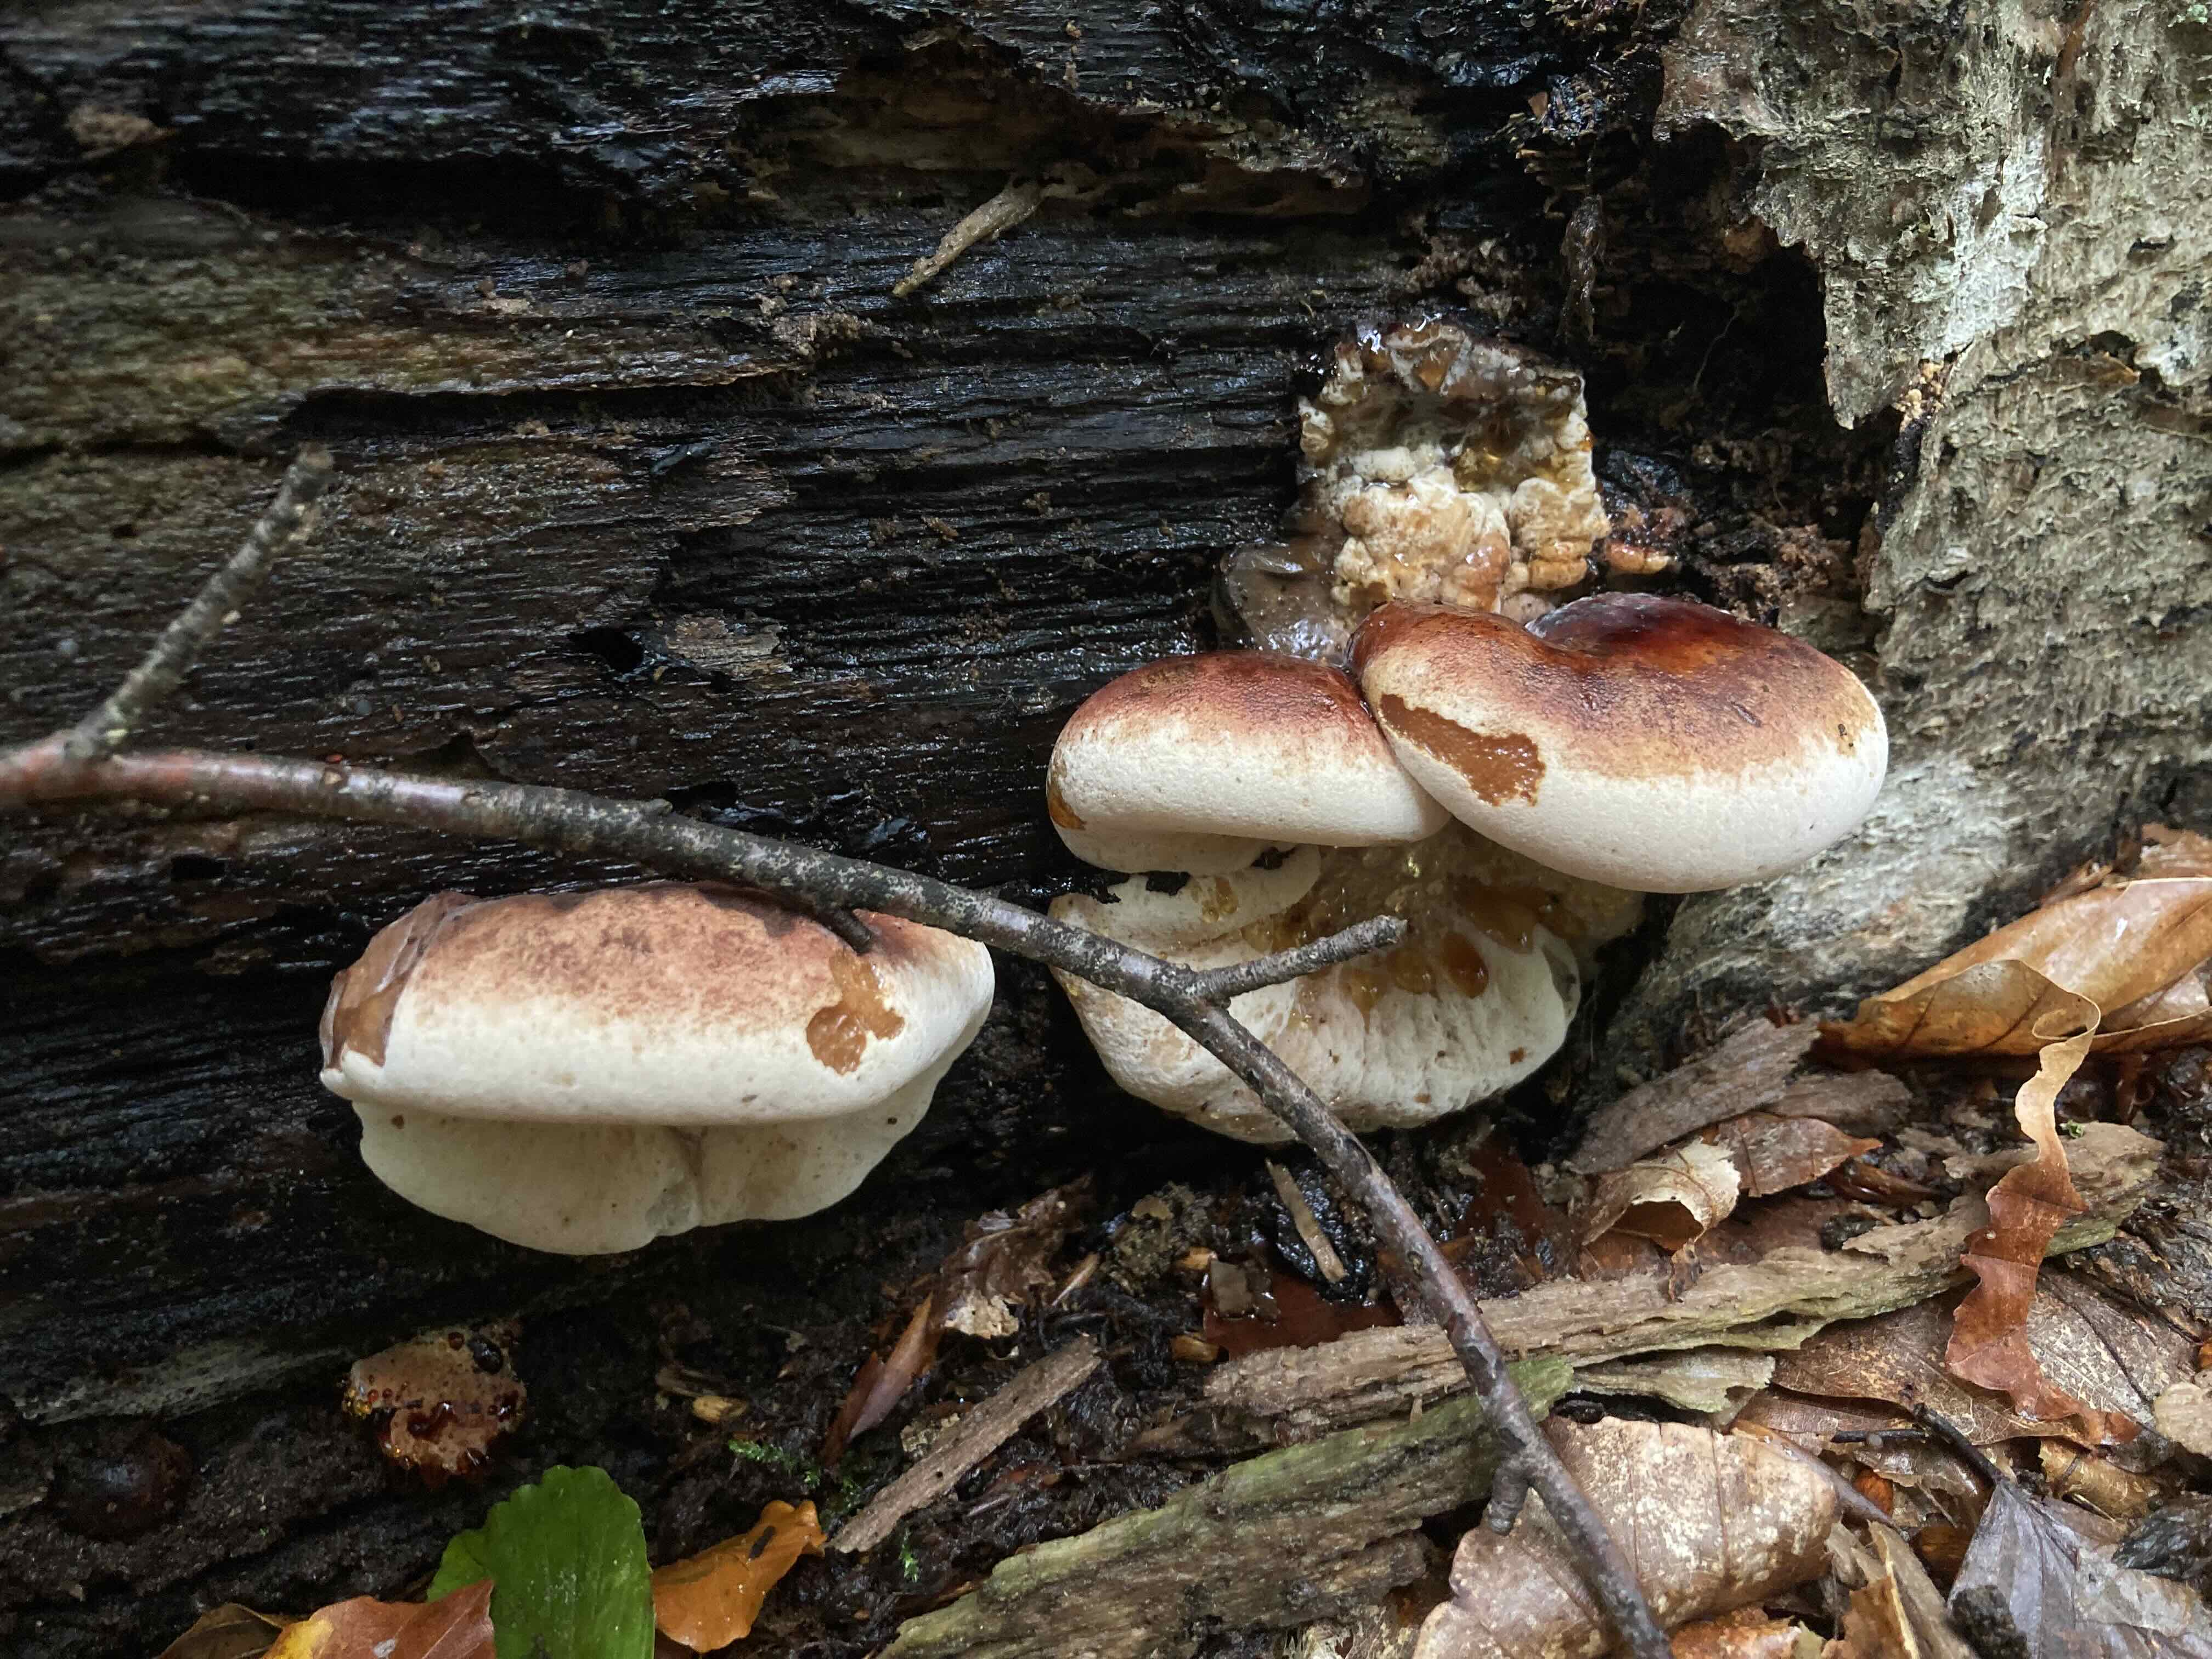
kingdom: Fungi
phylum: Basidiomycota
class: Agaricomycetes
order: Polyporales
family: Ischnodermataceae
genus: Ischnoderma
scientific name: Ischnoderma resinosum
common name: løv-tjæreporesvamp
